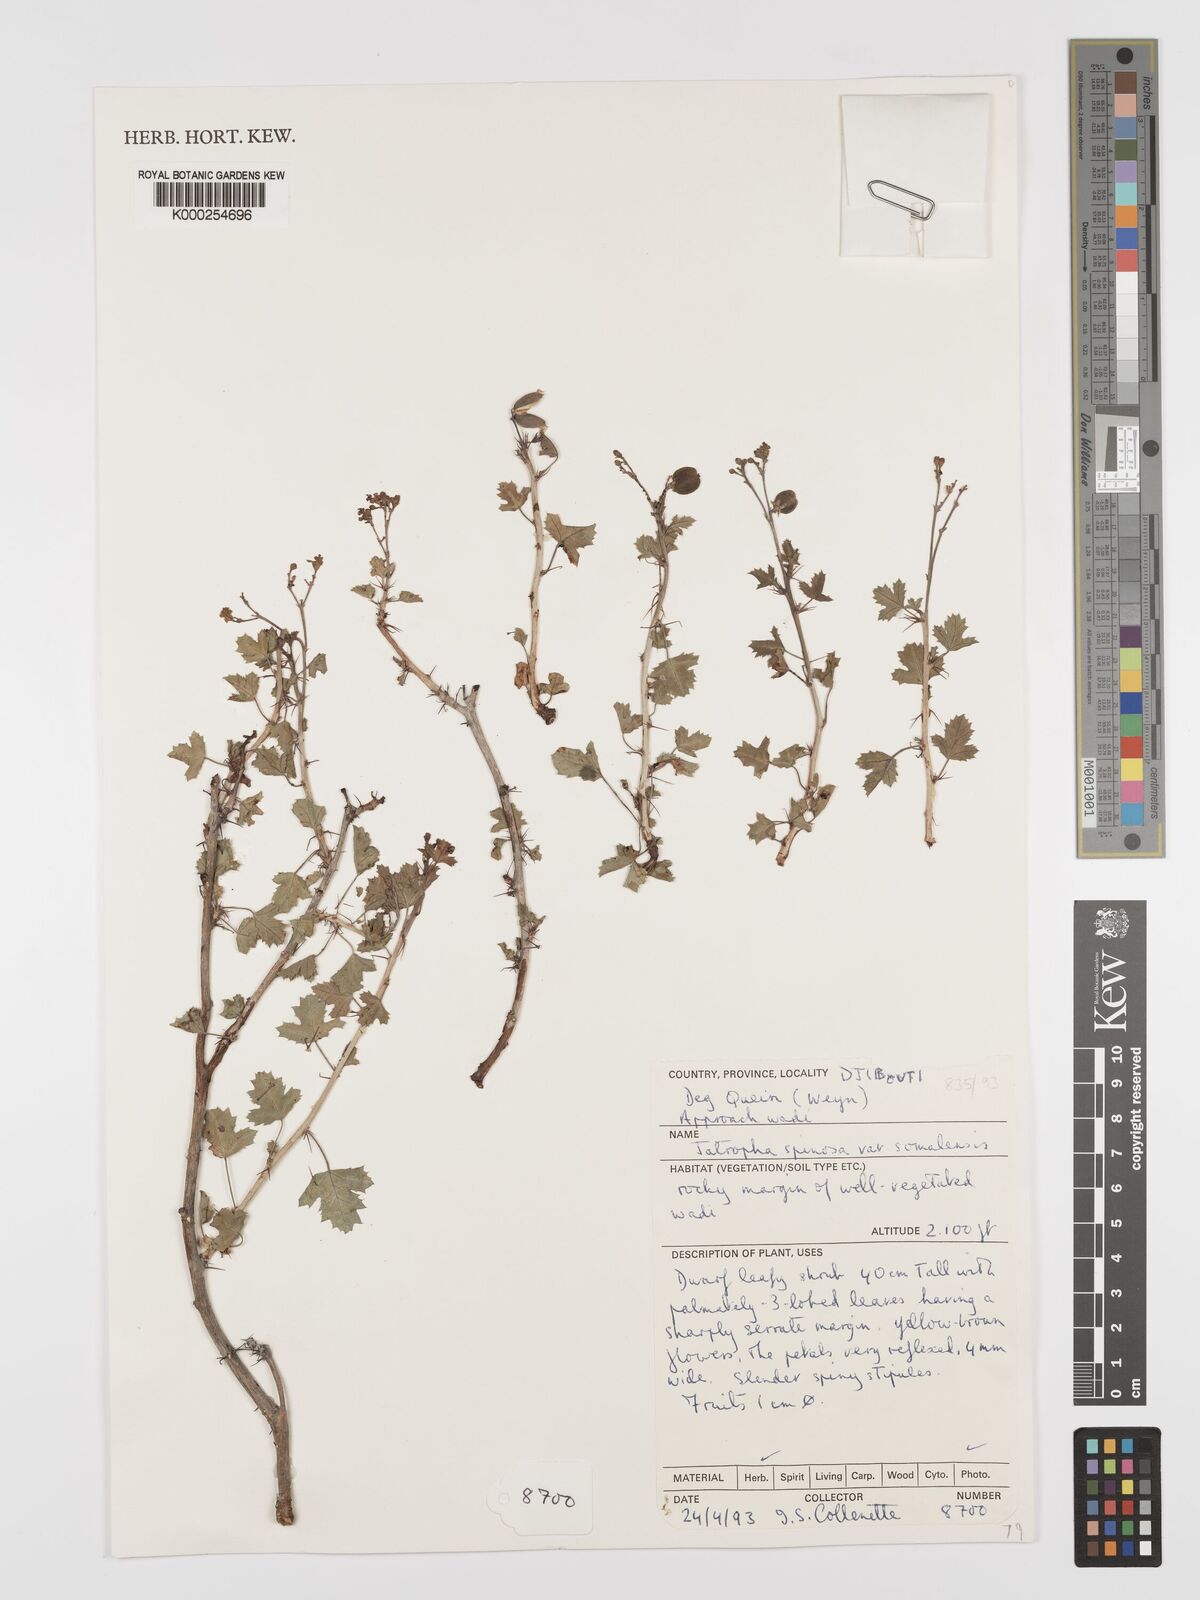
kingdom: Plantae
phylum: Tracheophyta
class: Magnoliopsida
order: Malpighiales
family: Euphorbiaceae
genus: Jatropha
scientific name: Jatropha spinosa
